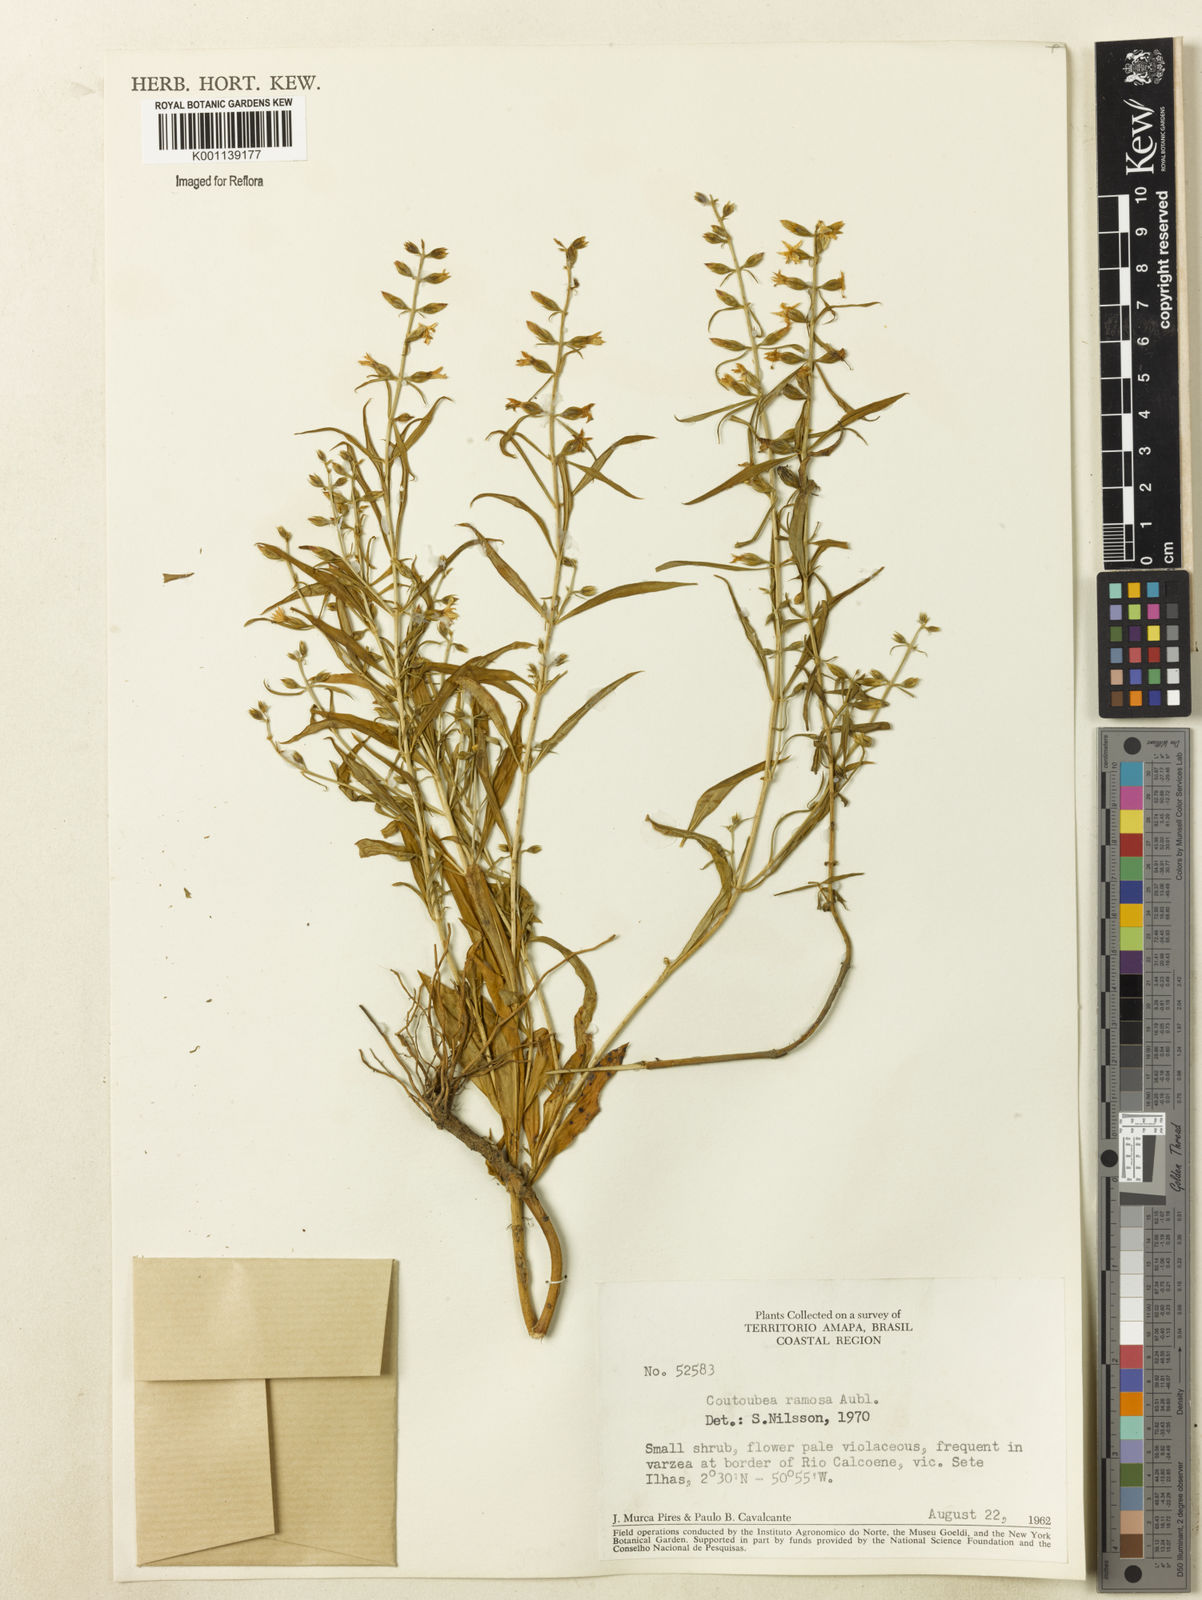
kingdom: Plantae
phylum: Tracheophyta
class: Magnoliopsida
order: Gentianales
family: Gentianaceae
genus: Coutoubea
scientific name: Coutoubea ramosa
